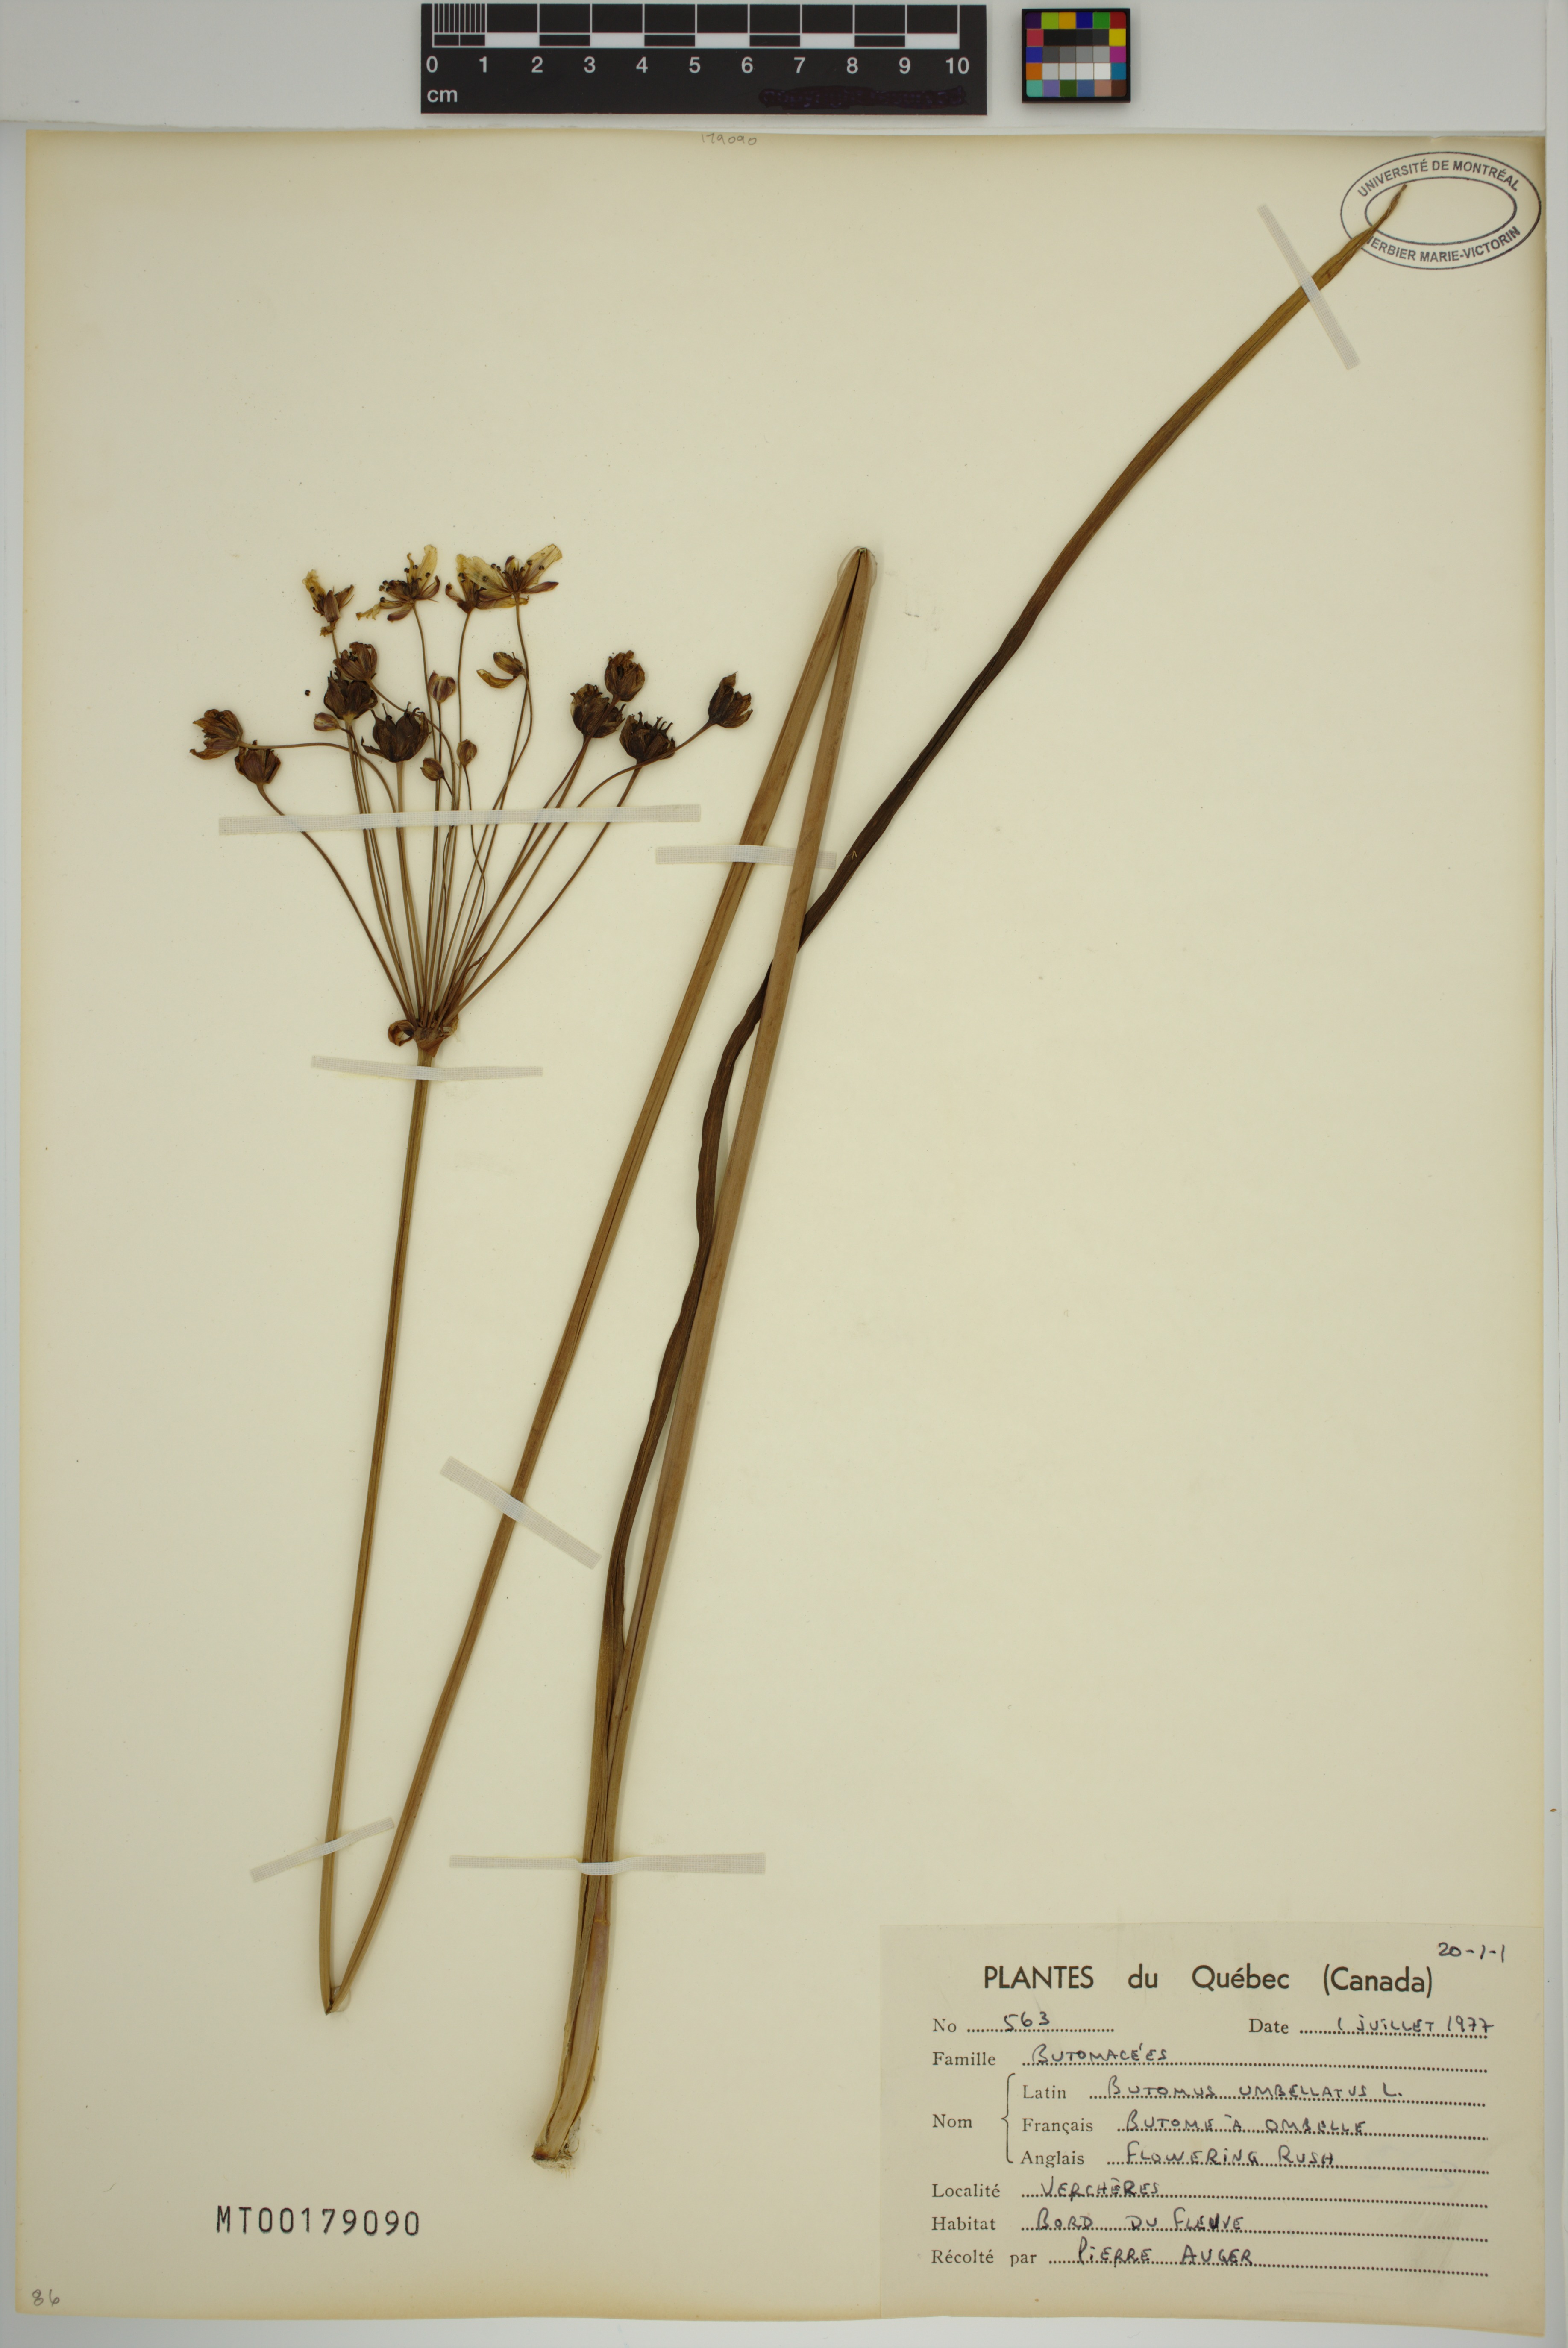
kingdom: Plantae
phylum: Tracheophyta
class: Liliopsida
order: Alismatales
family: Butomaceae
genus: Butomus
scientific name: Butomus umbellatus
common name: Flowering-rush
